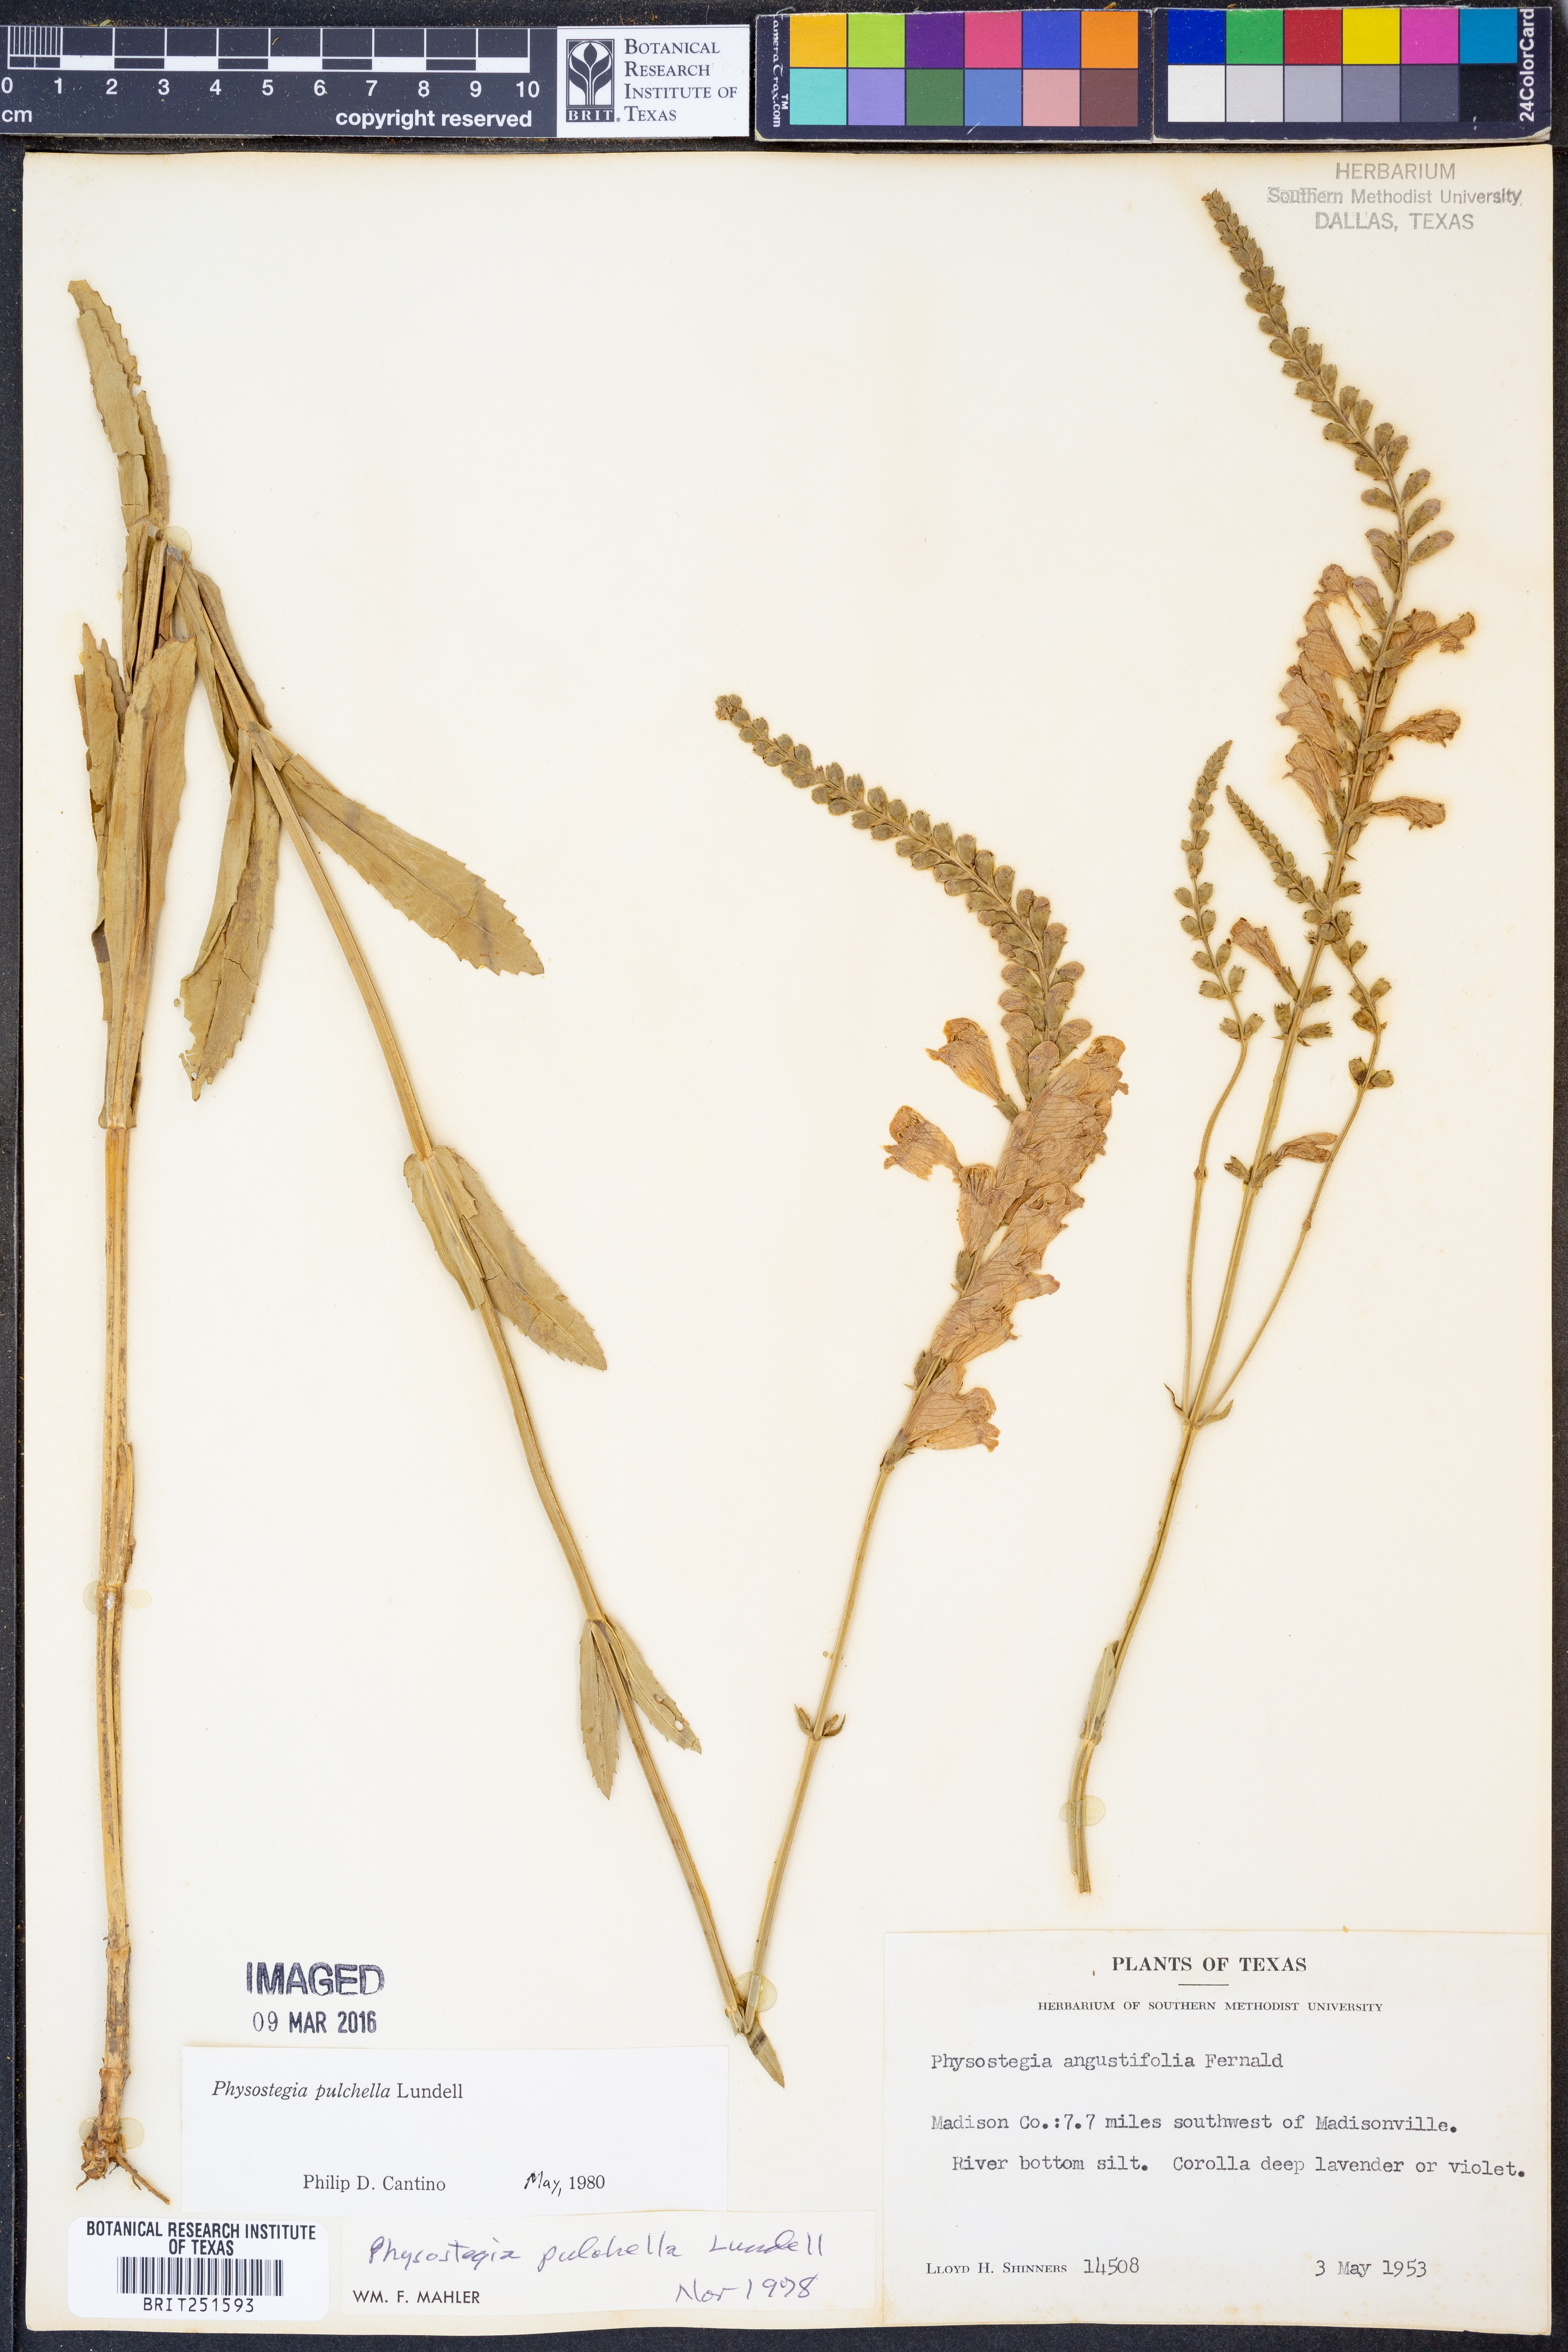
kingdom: Plantae
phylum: Tracheophyta
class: Magnoliopsida
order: Lamiales
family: Lamiaceae
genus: Physostegia
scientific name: Physostegia pulchella
